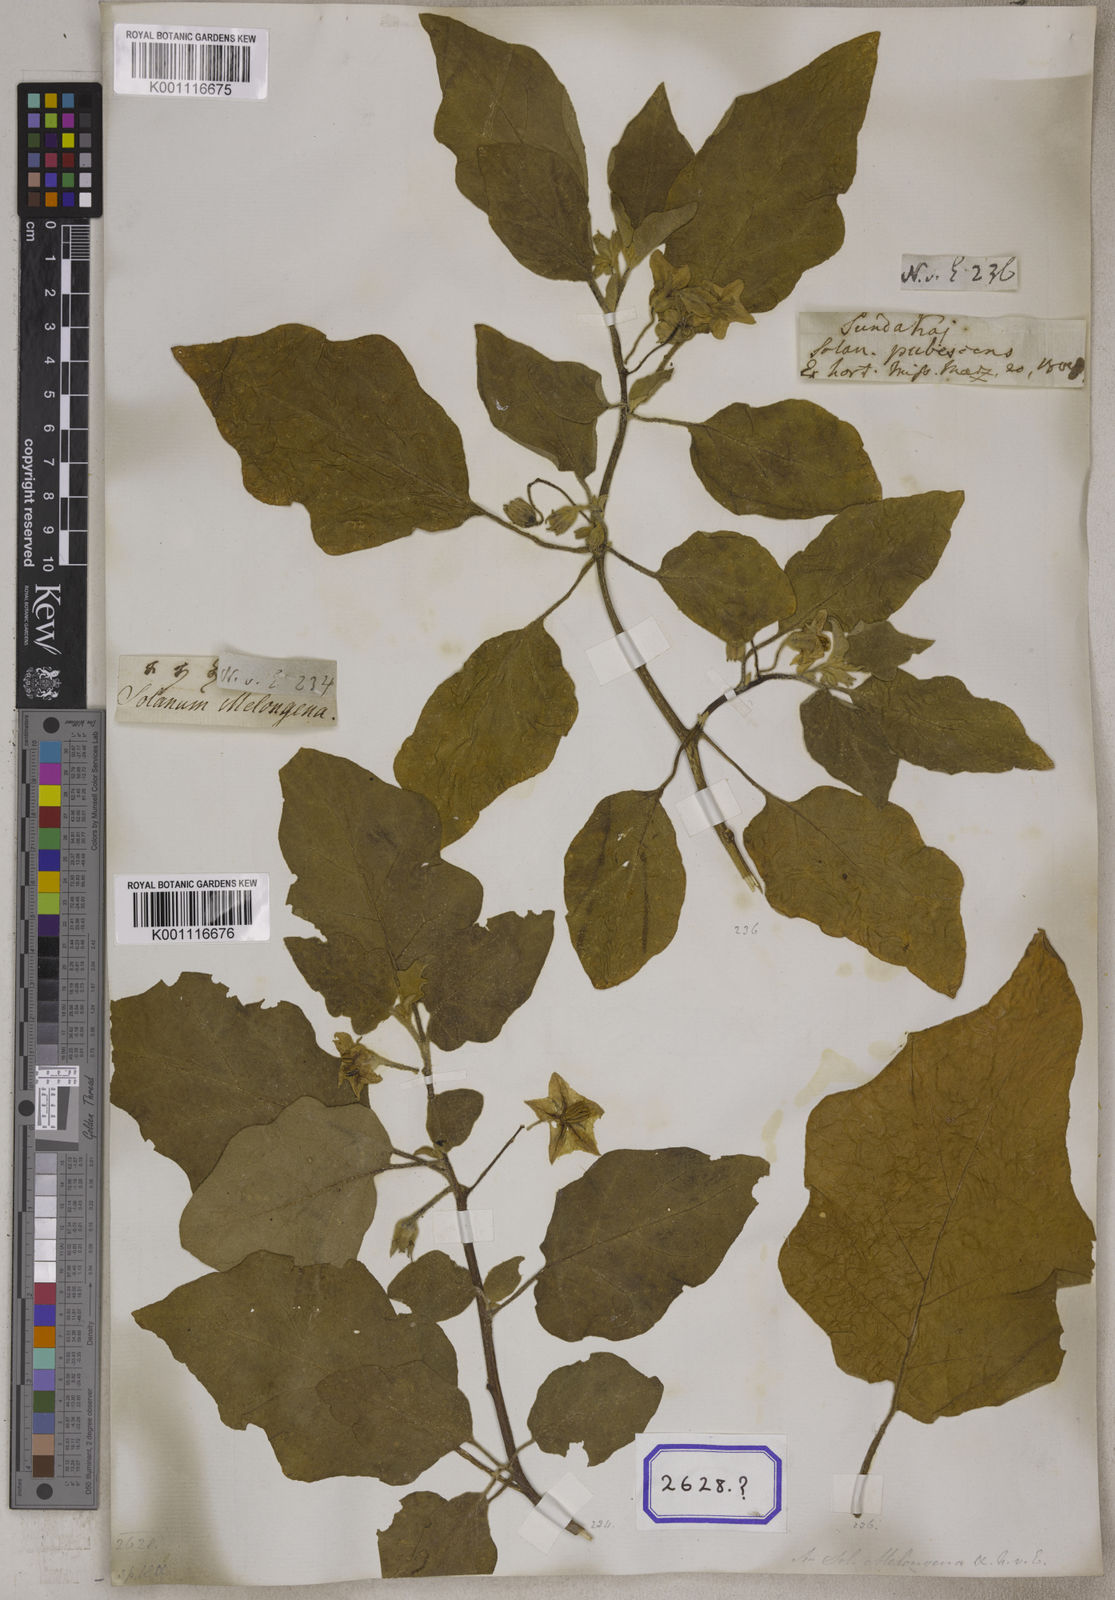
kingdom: Plantae
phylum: Tracheophyta
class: Magnoliopsida
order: Solanales
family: Solanaceae
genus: Solanum
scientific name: Solanum melongena
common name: Eggplant
